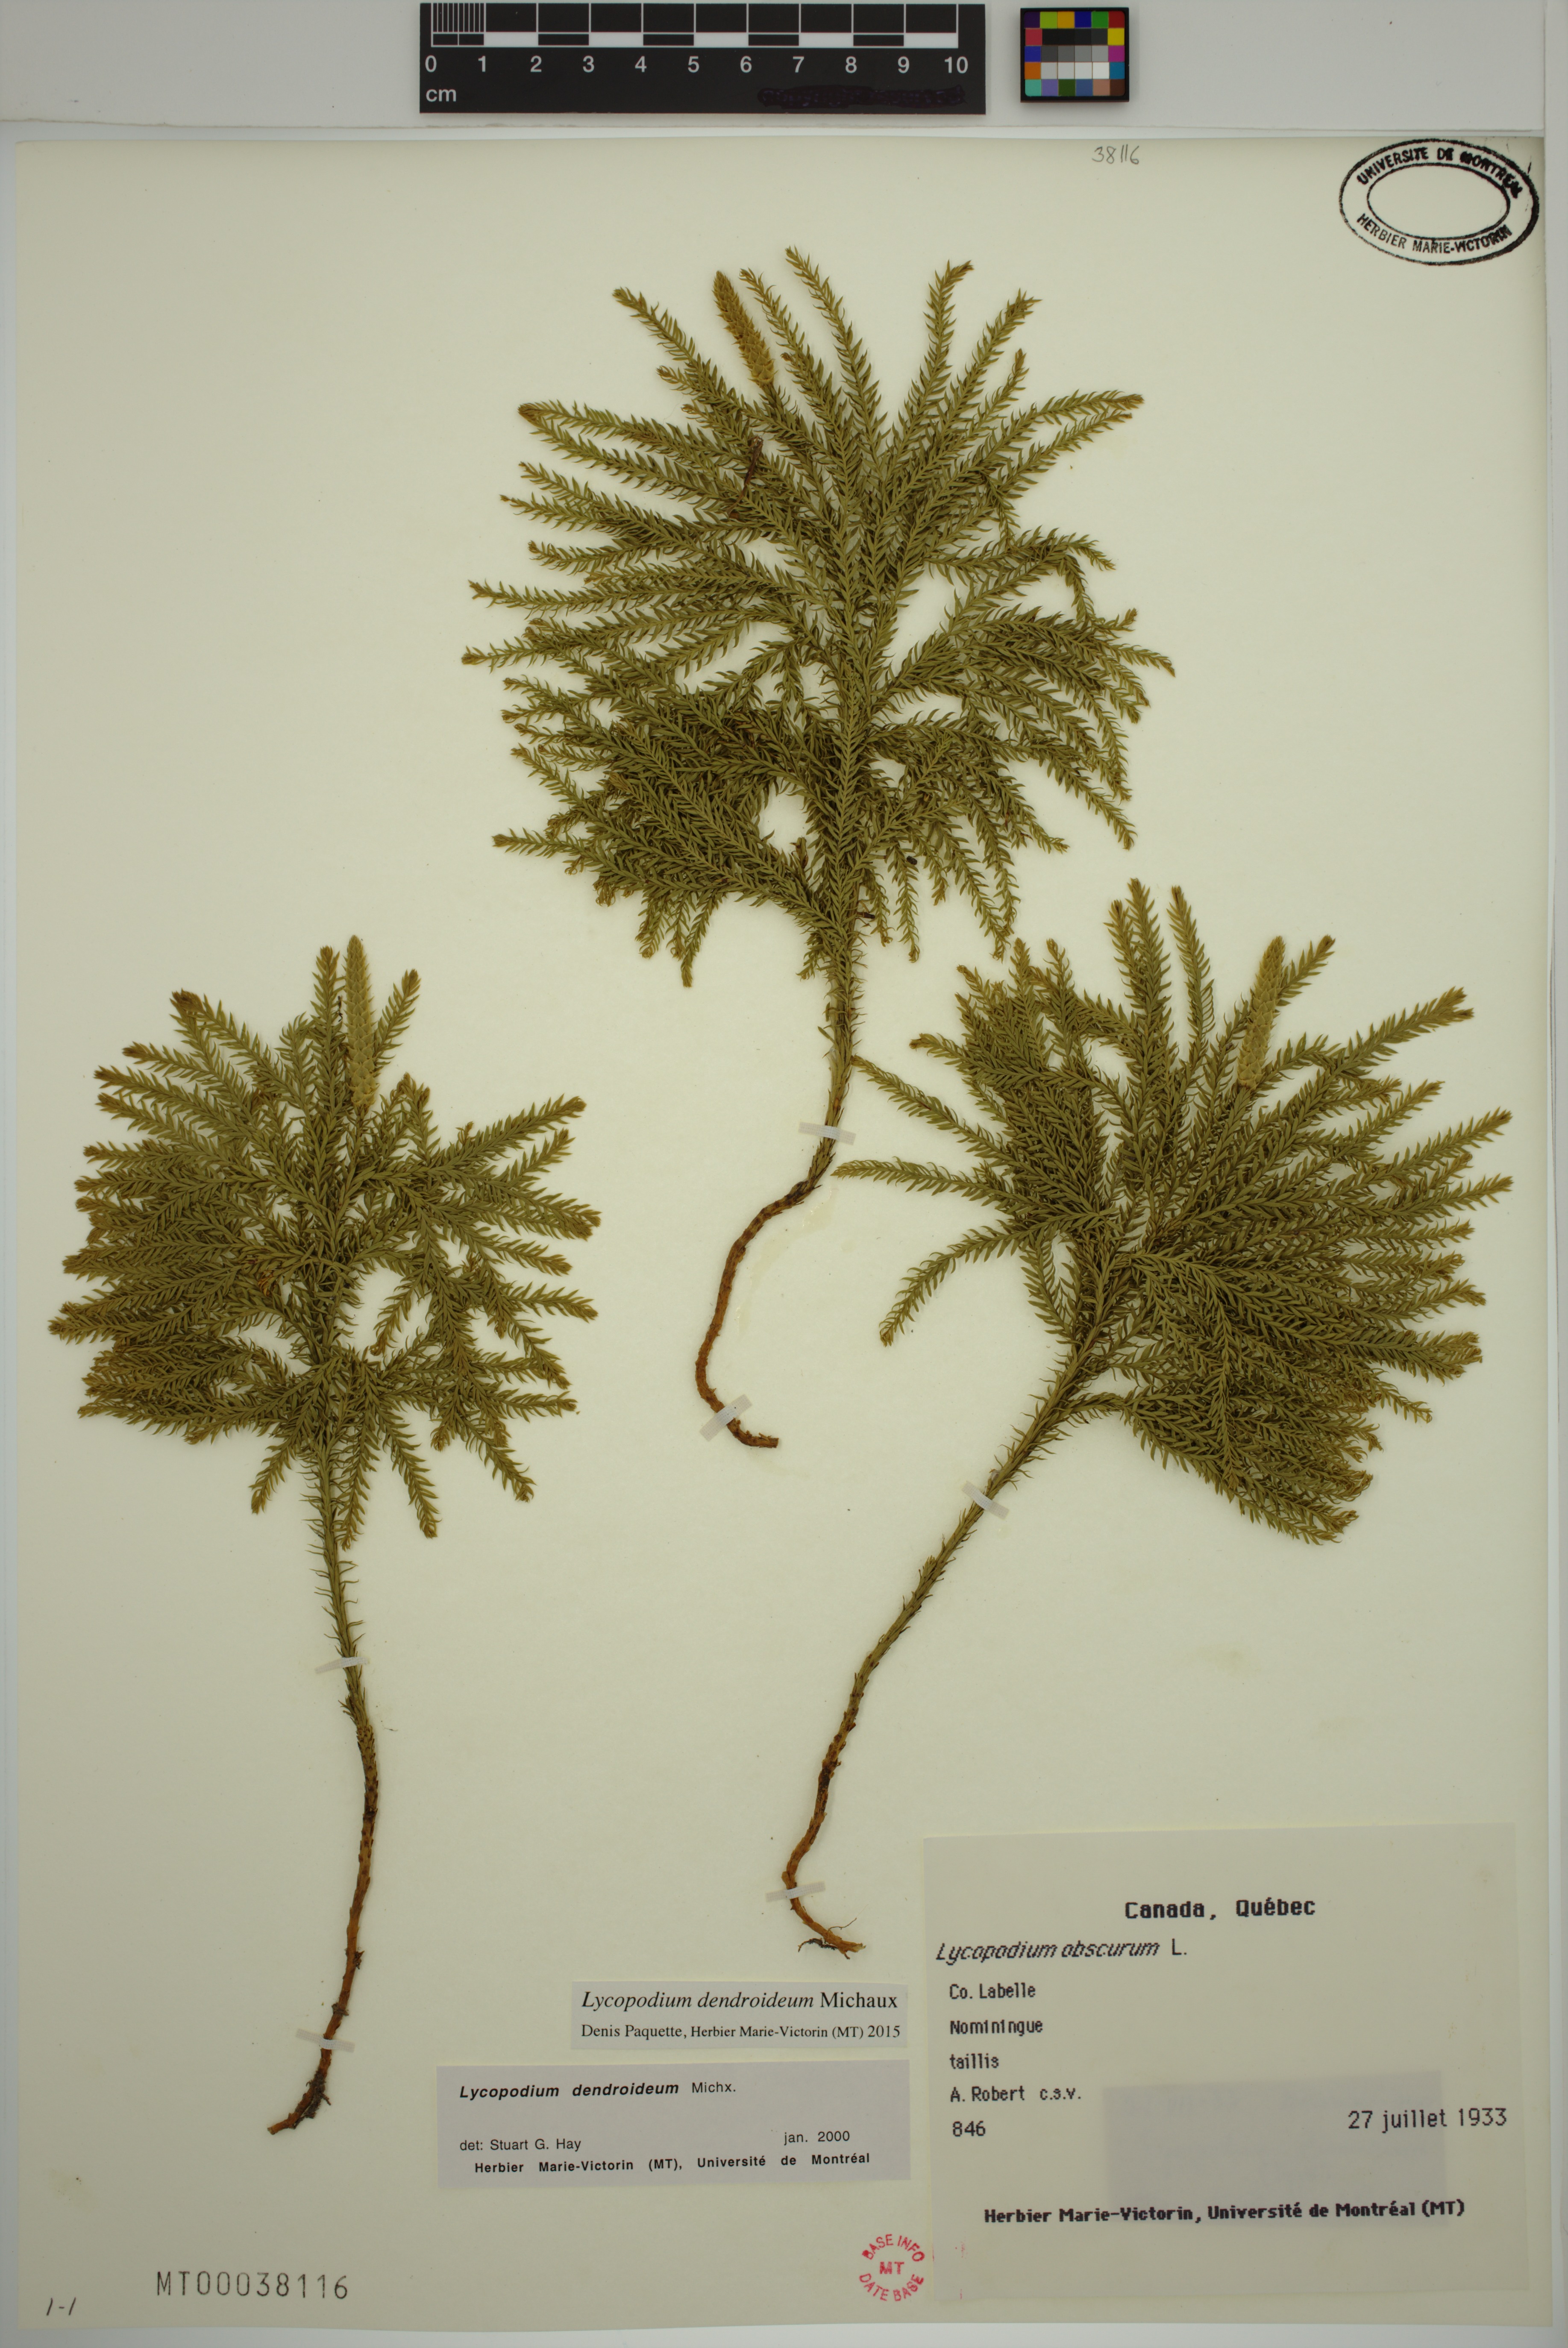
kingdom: Plantae
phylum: Tracheophyta
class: Lycopodiopsida
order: Lycopodiales
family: Lycopodiaceae
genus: Dendrolycopodium
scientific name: Dendrolycopodium dendroideum
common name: Northern tree-clubmoss
